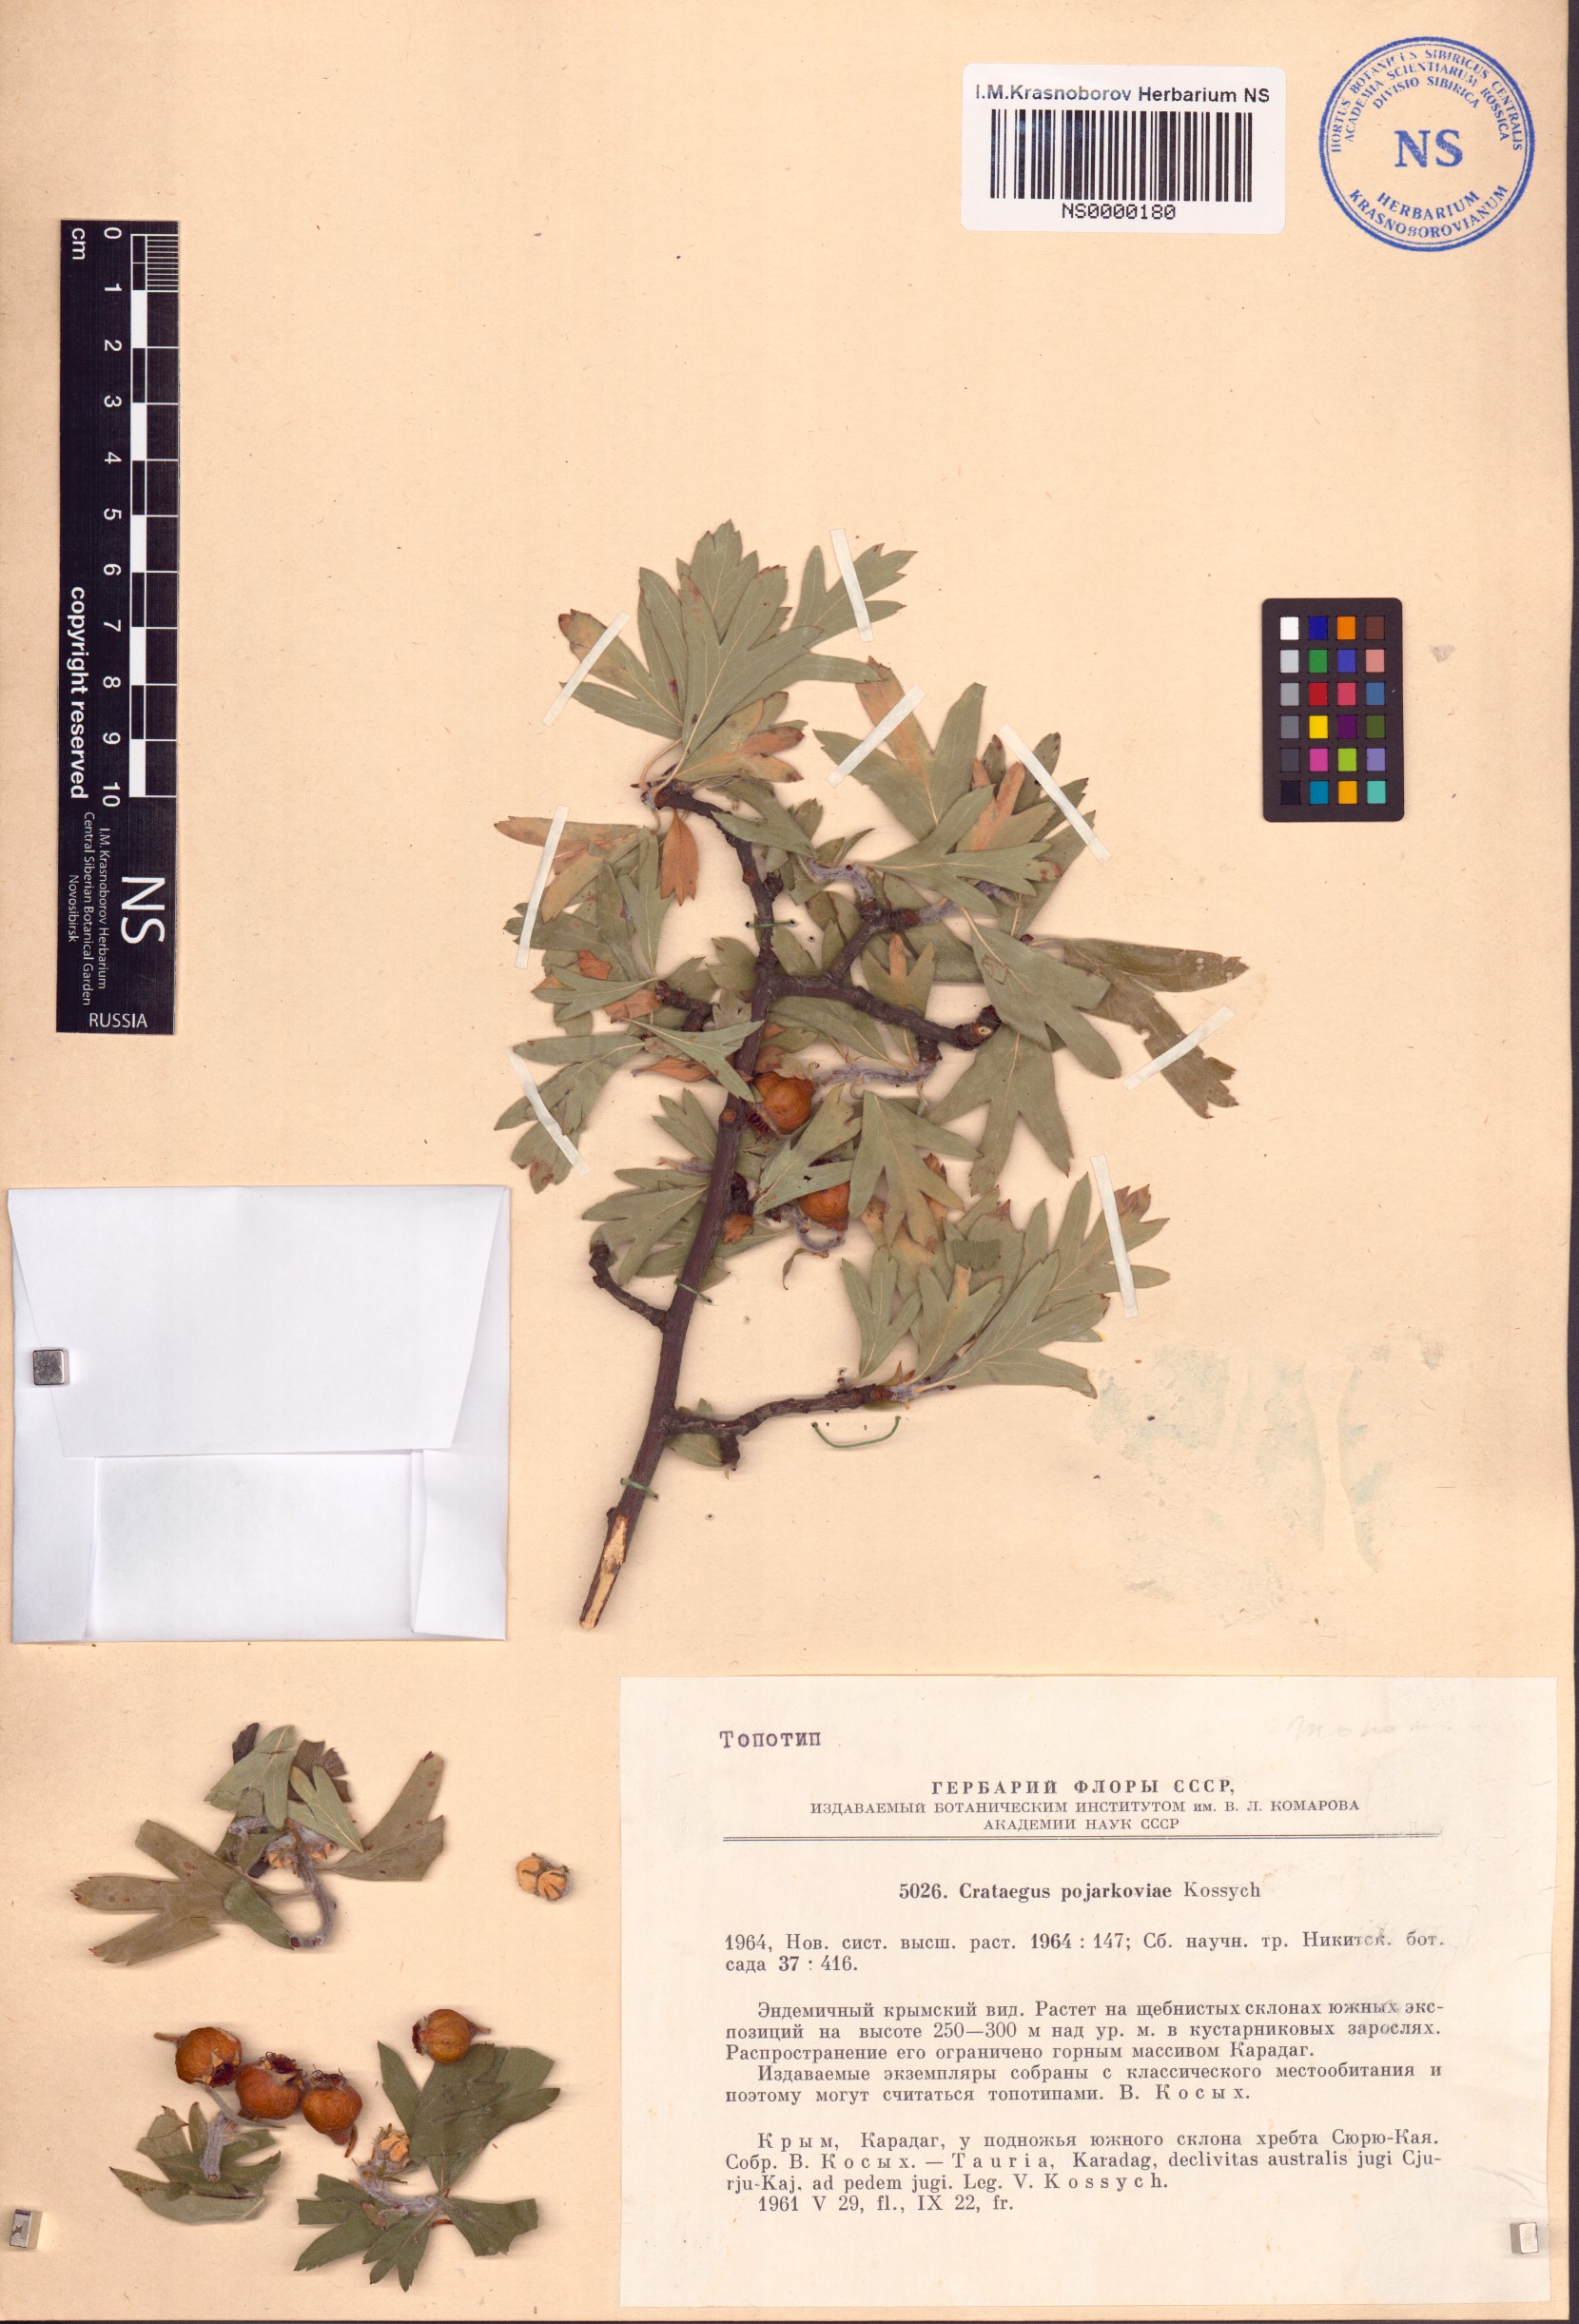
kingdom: Plantae
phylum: Tracheophyta
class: Magnoliopsida
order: Rosales
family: Rosaceae
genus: Crataegus
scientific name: Crataegus orientalis
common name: Oriental hawthorn
